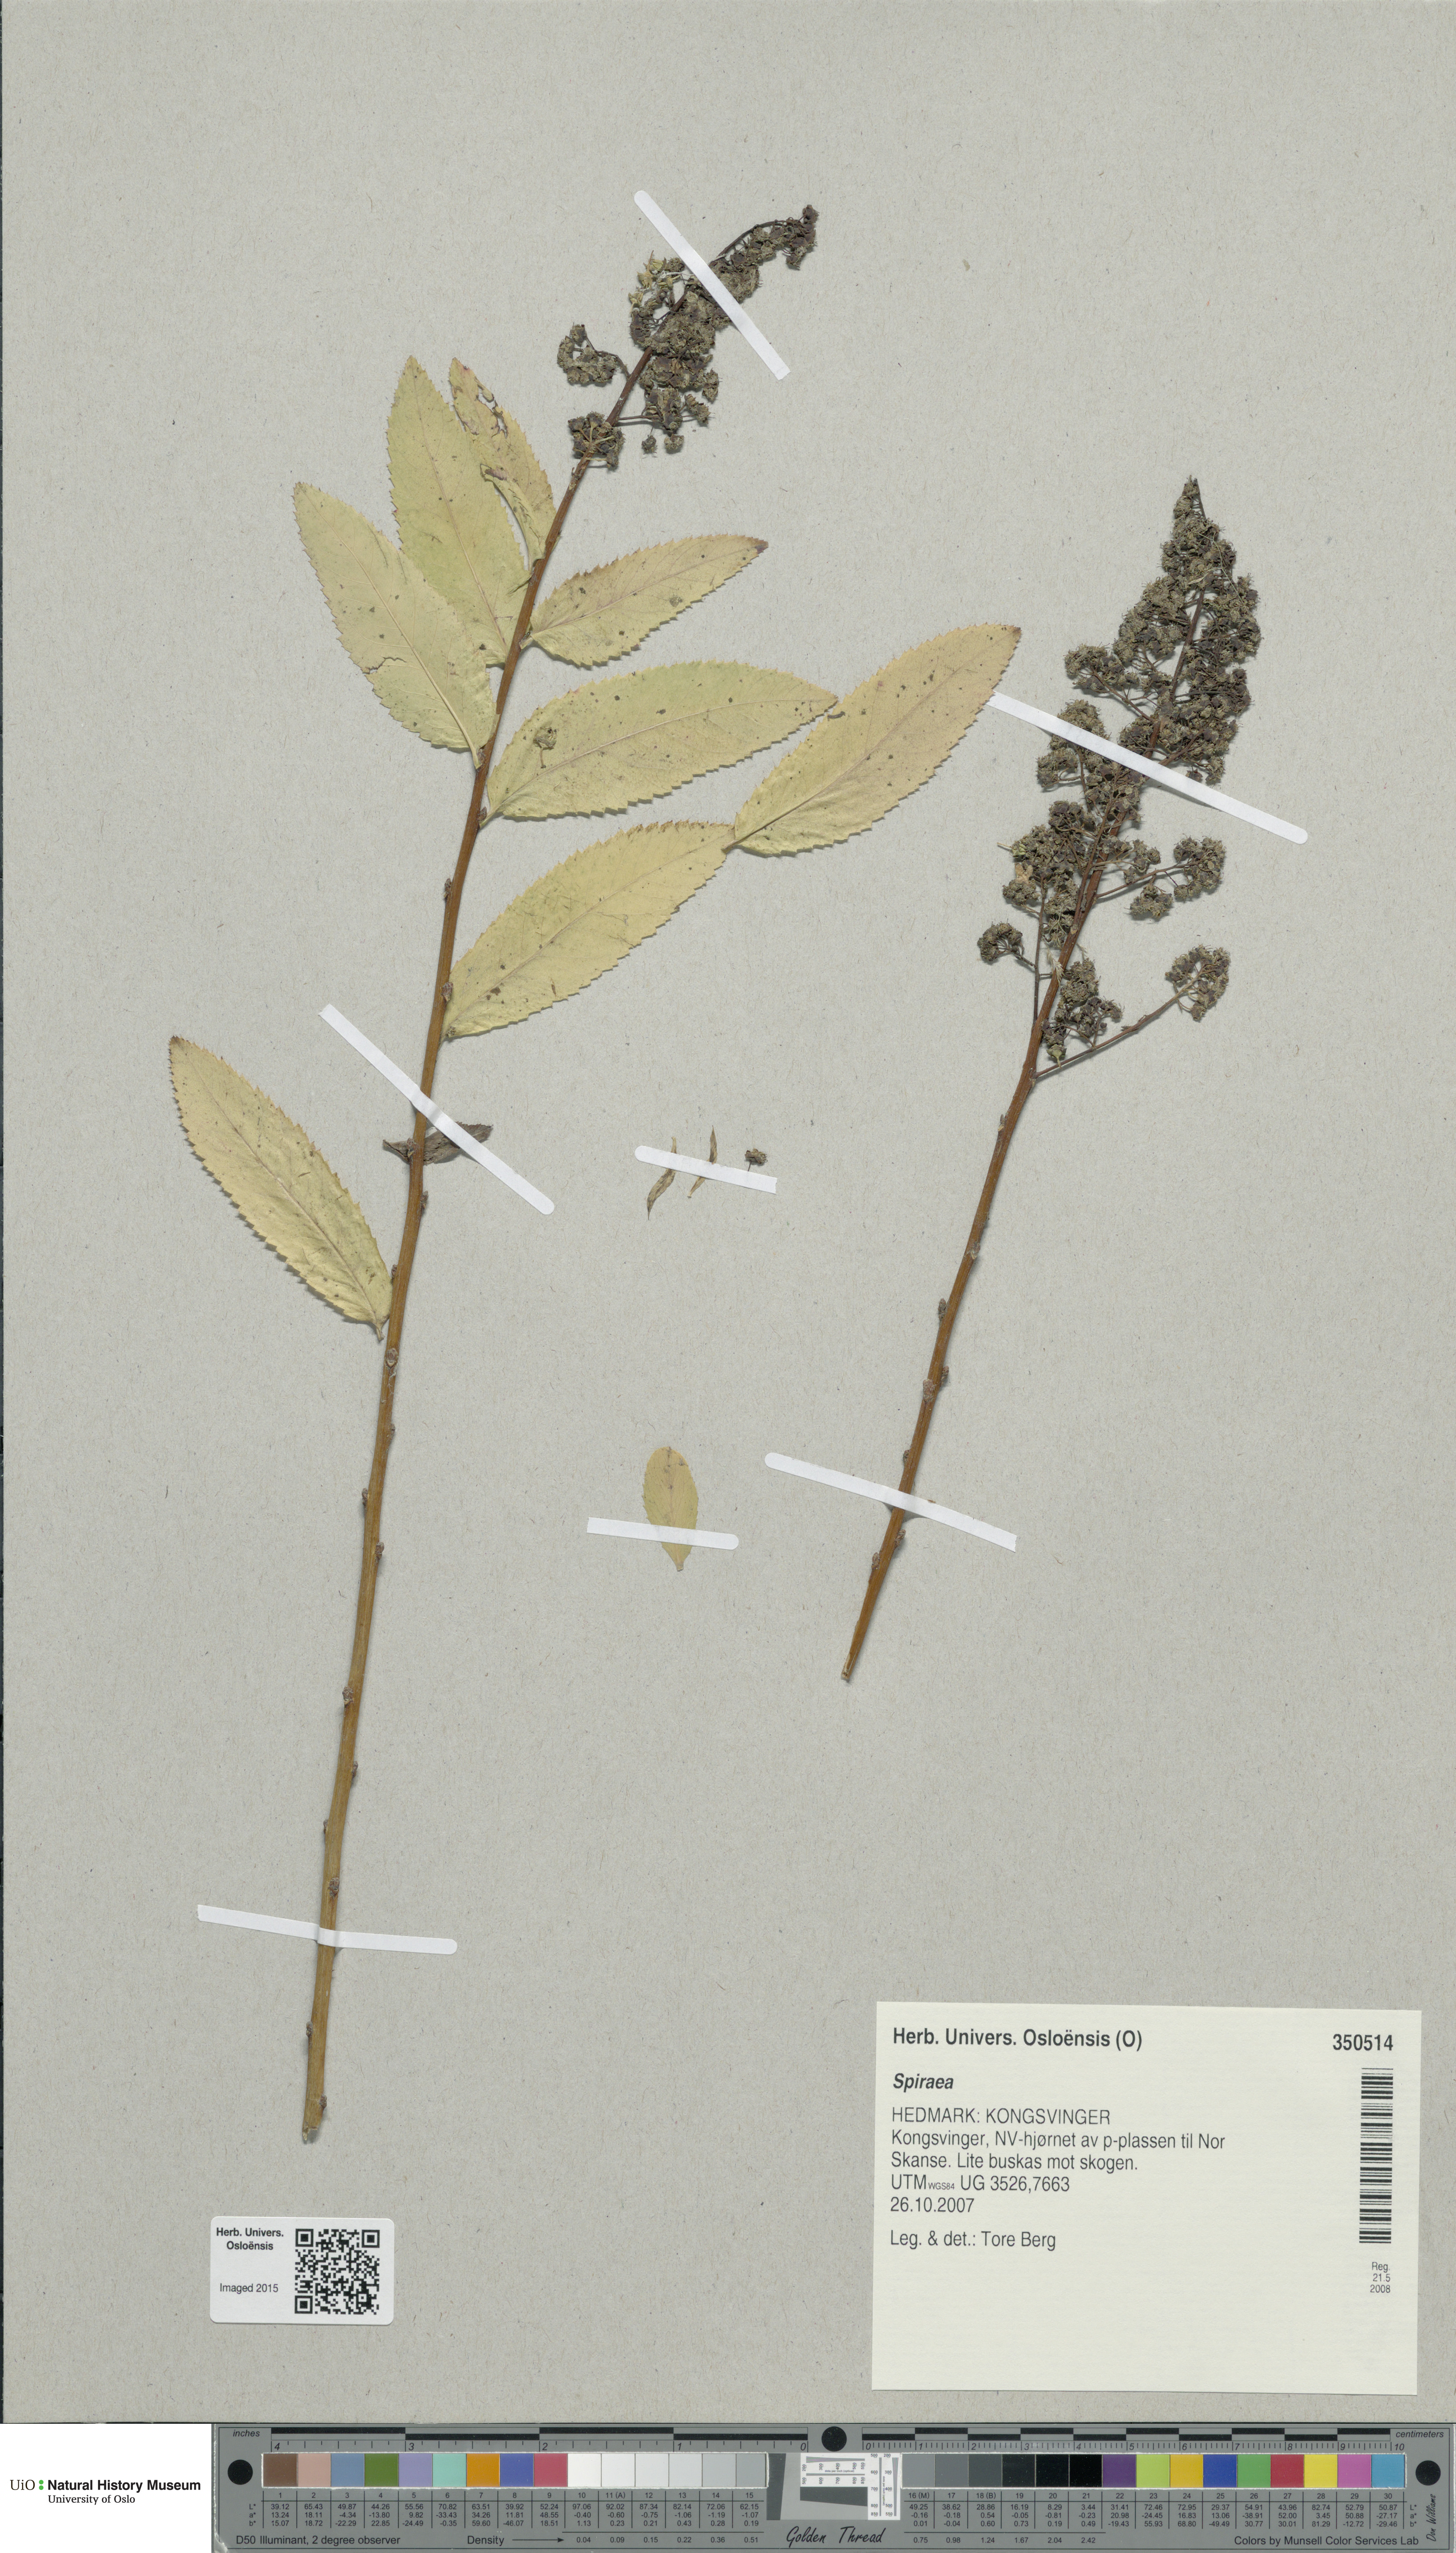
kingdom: Plantae
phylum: Tracheophyta
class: Magnoliopsida
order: Rosales
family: Rosaceae
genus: Spiraea
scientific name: Spiraea
